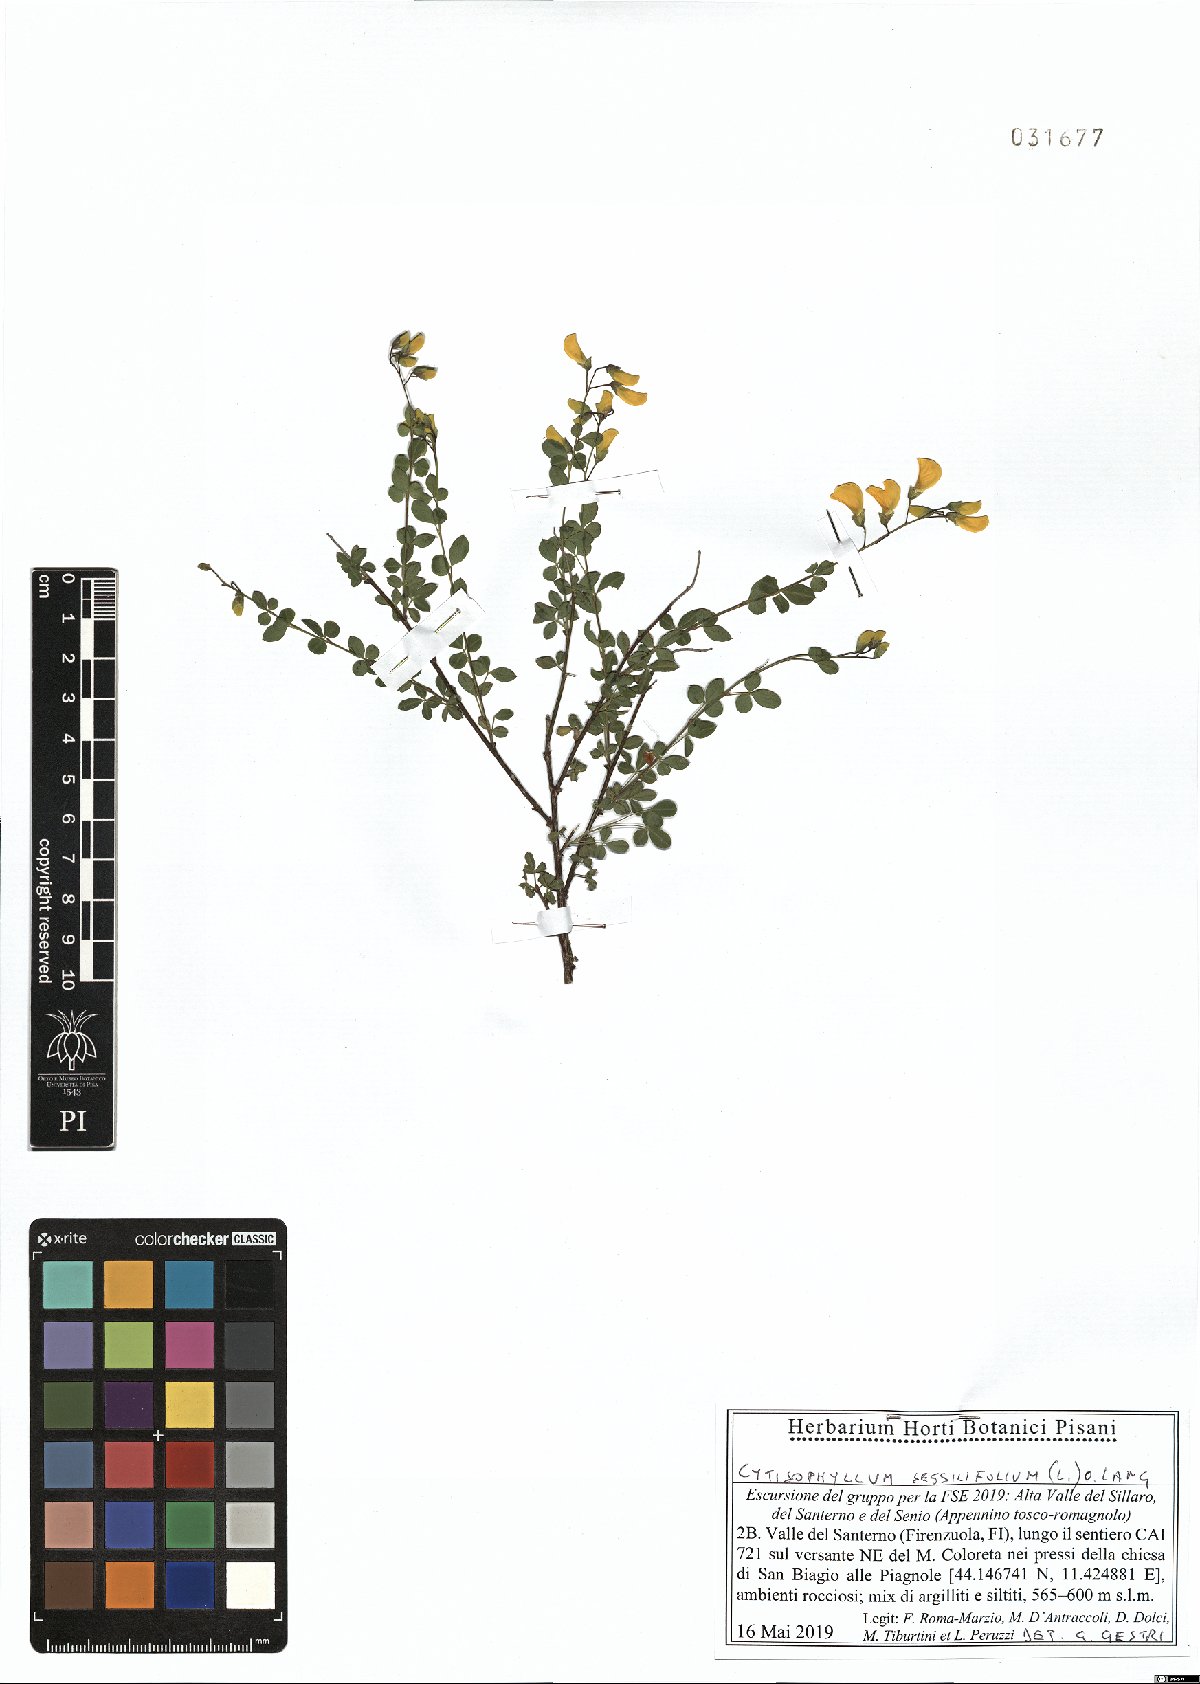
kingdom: Plantae
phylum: Tracheophyta
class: Magnoliopsida
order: Fabales
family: Fabaceae
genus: Cytisophyllum
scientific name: Cytisophyllum sessilifolium
